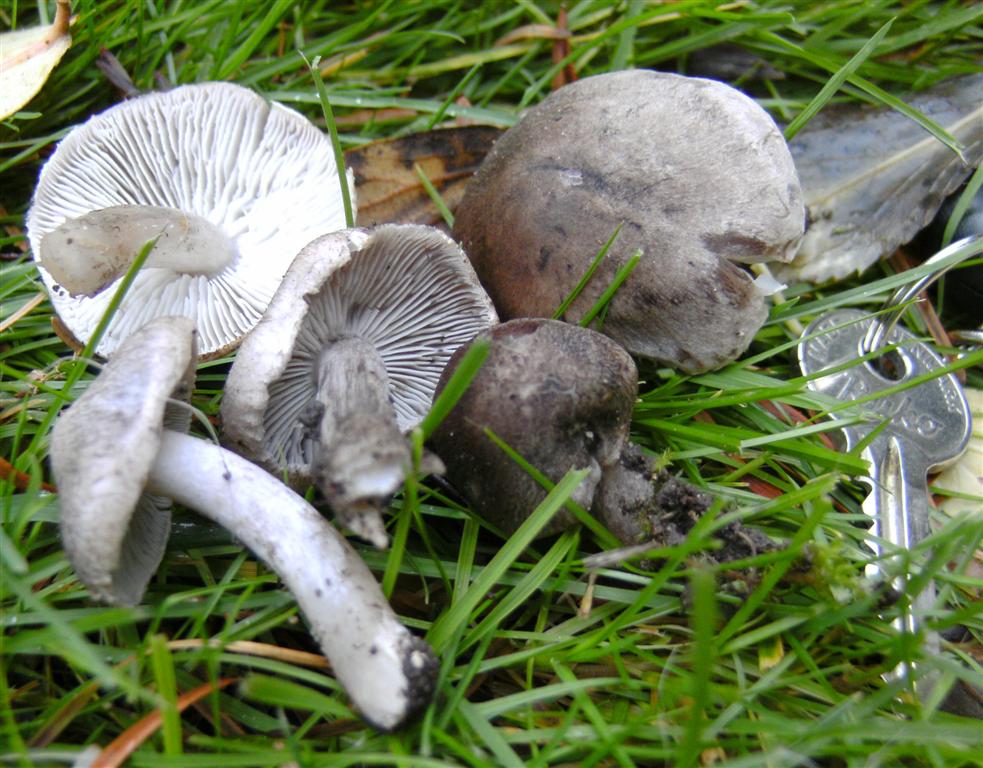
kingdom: Fungi
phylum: Basidiomycota
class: Agaricomycetes
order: Agaricales
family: Tricholomataceae
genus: Tricholoma
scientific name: Tricholoma argyraceum
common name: slør-ridderhat
